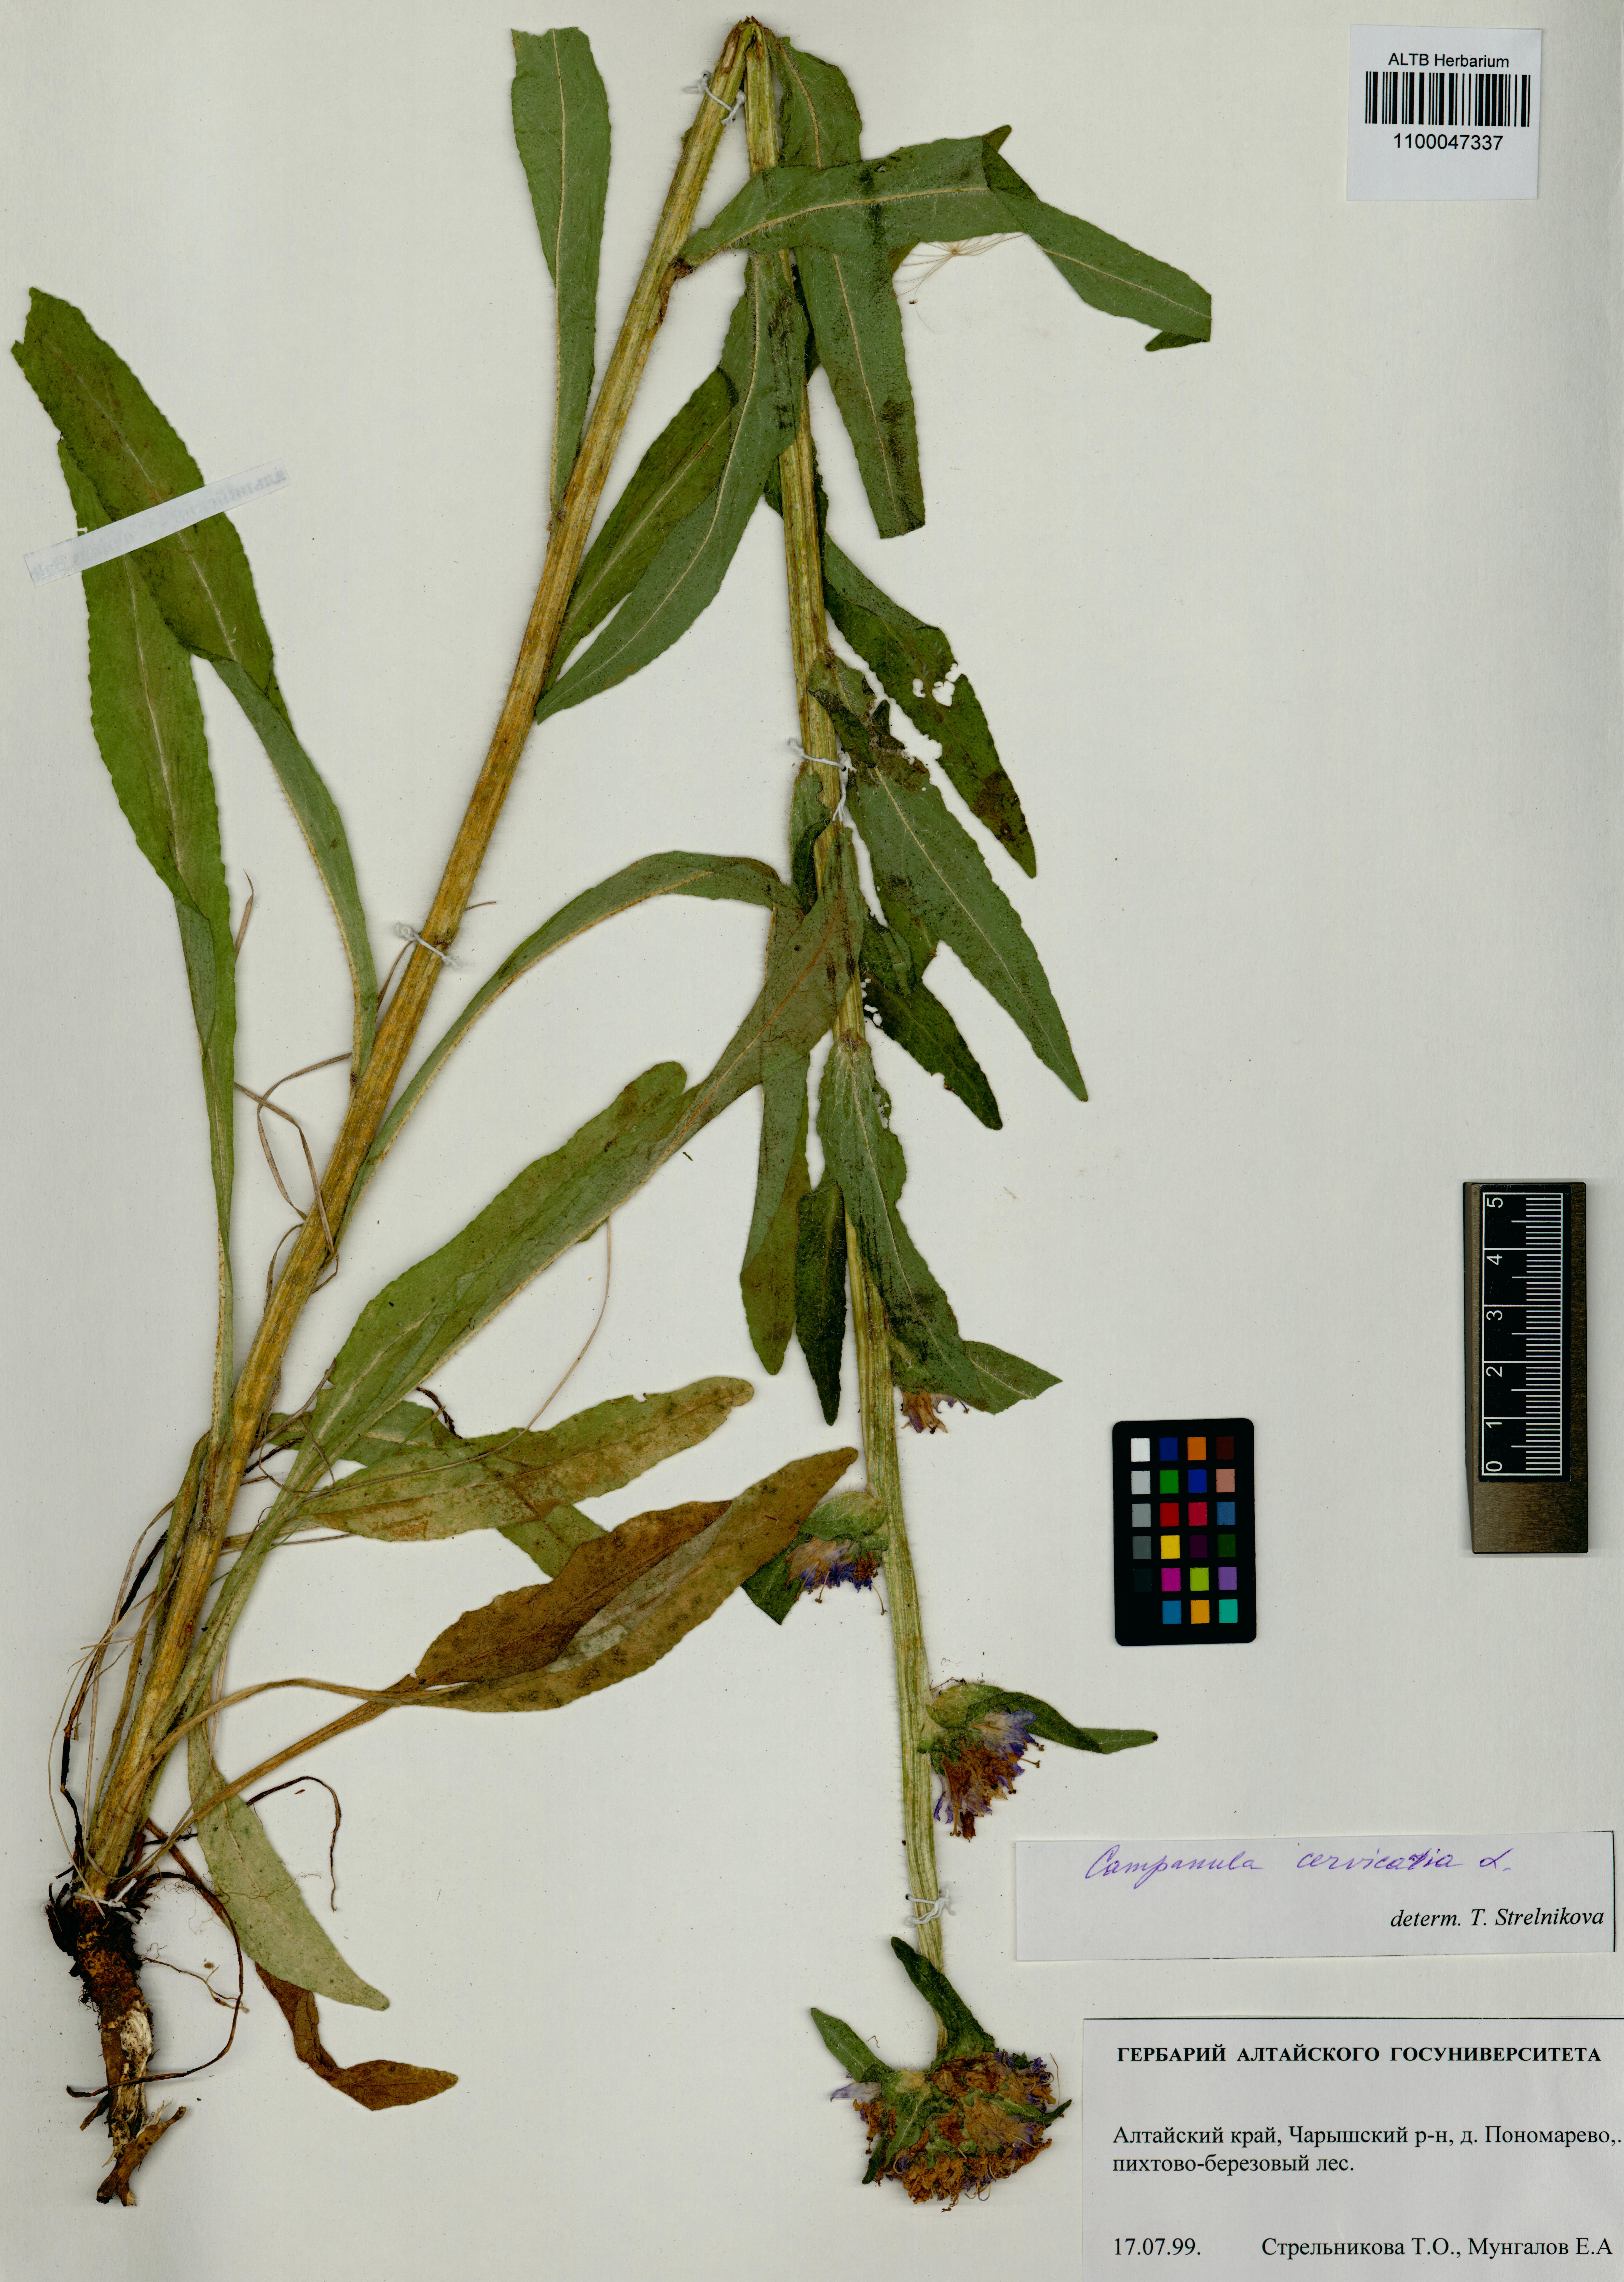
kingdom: Plantae
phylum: Tracheophyta
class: Magnoliopsida
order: Asterales
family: Campanulaceae
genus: Campanula
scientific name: Campanula cervicaria
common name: Bristly bellflower
